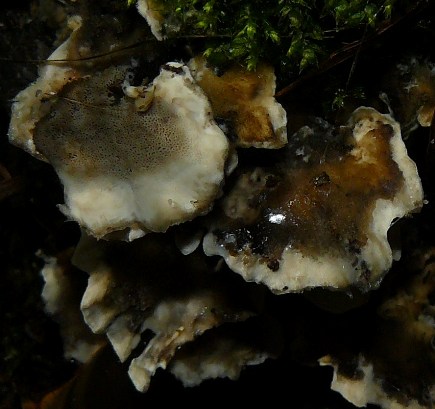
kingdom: Fungi
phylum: Basidiomycota
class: Agaricomycetes
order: Polyporales
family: Phanerochaetaceae
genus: Bjerkandera
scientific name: Bjerkandera adusta
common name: sveden sodporesvamp
